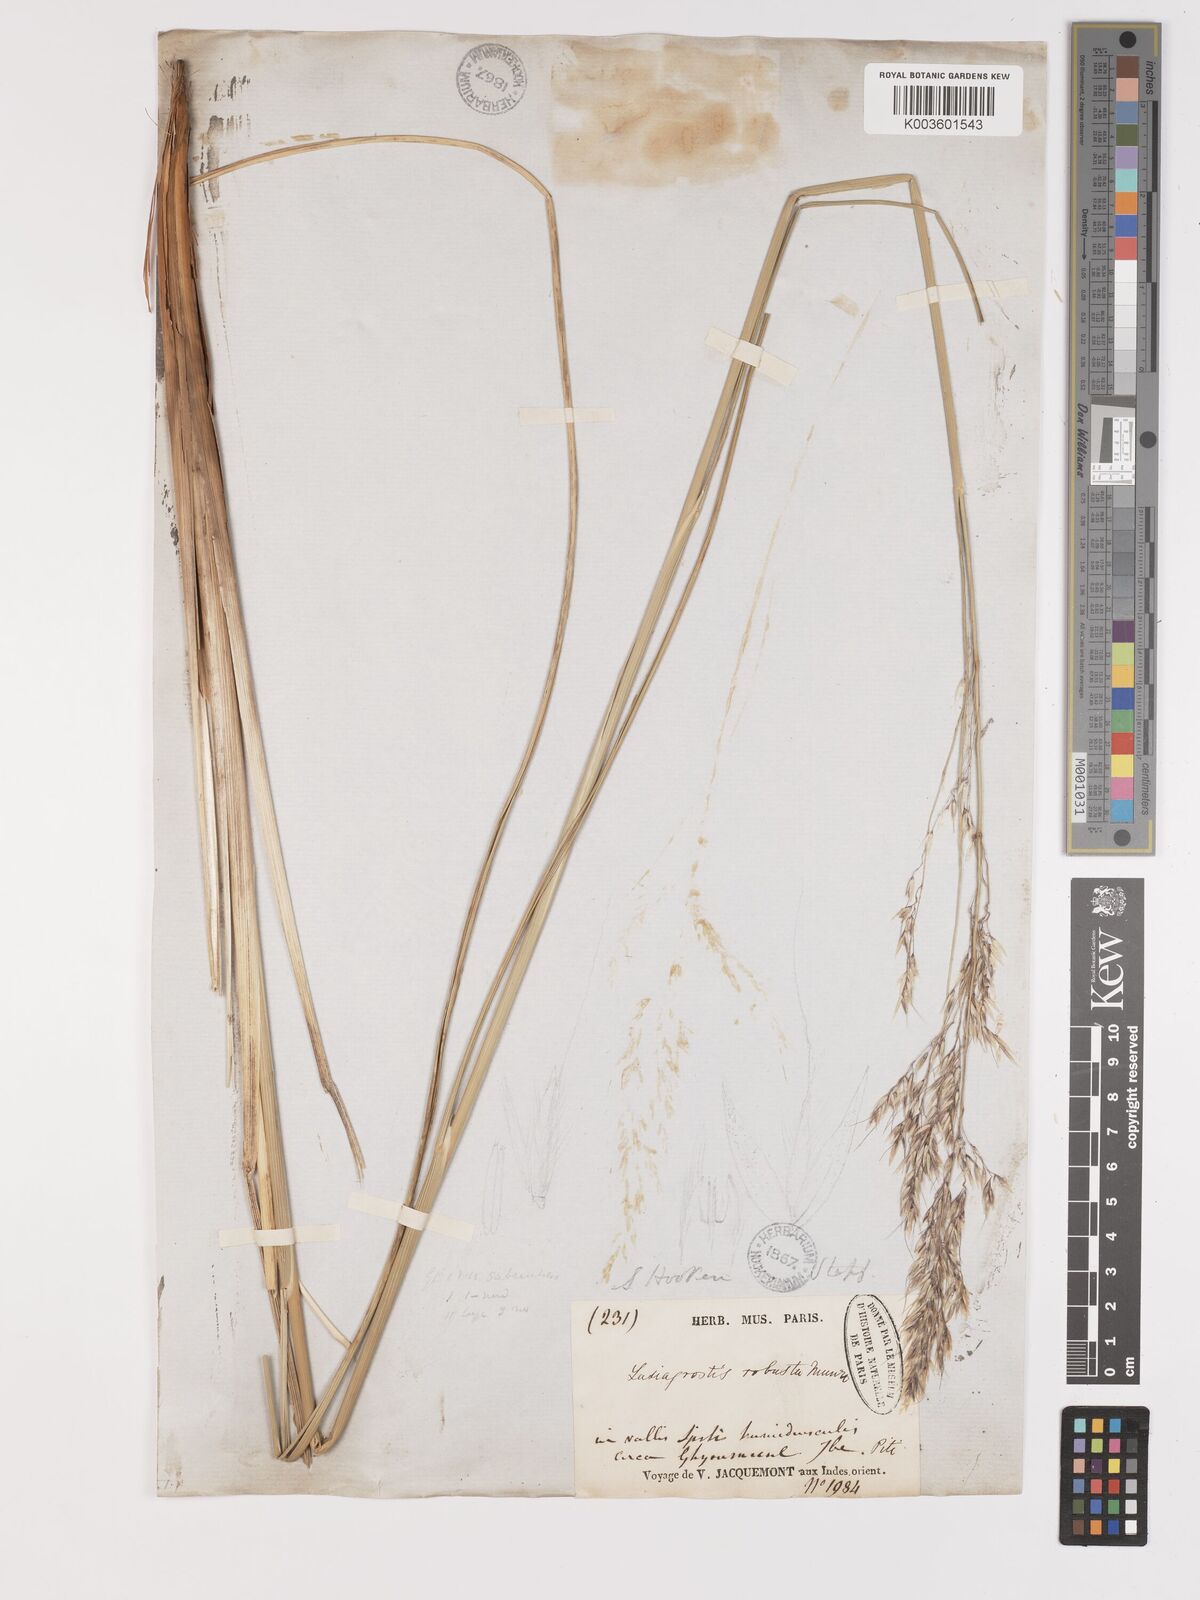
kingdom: Plantae
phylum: Tracheophyta
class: Liliopsida
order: Poales
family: Poaceae
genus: Neotrinia
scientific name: Neotrinia splendens
